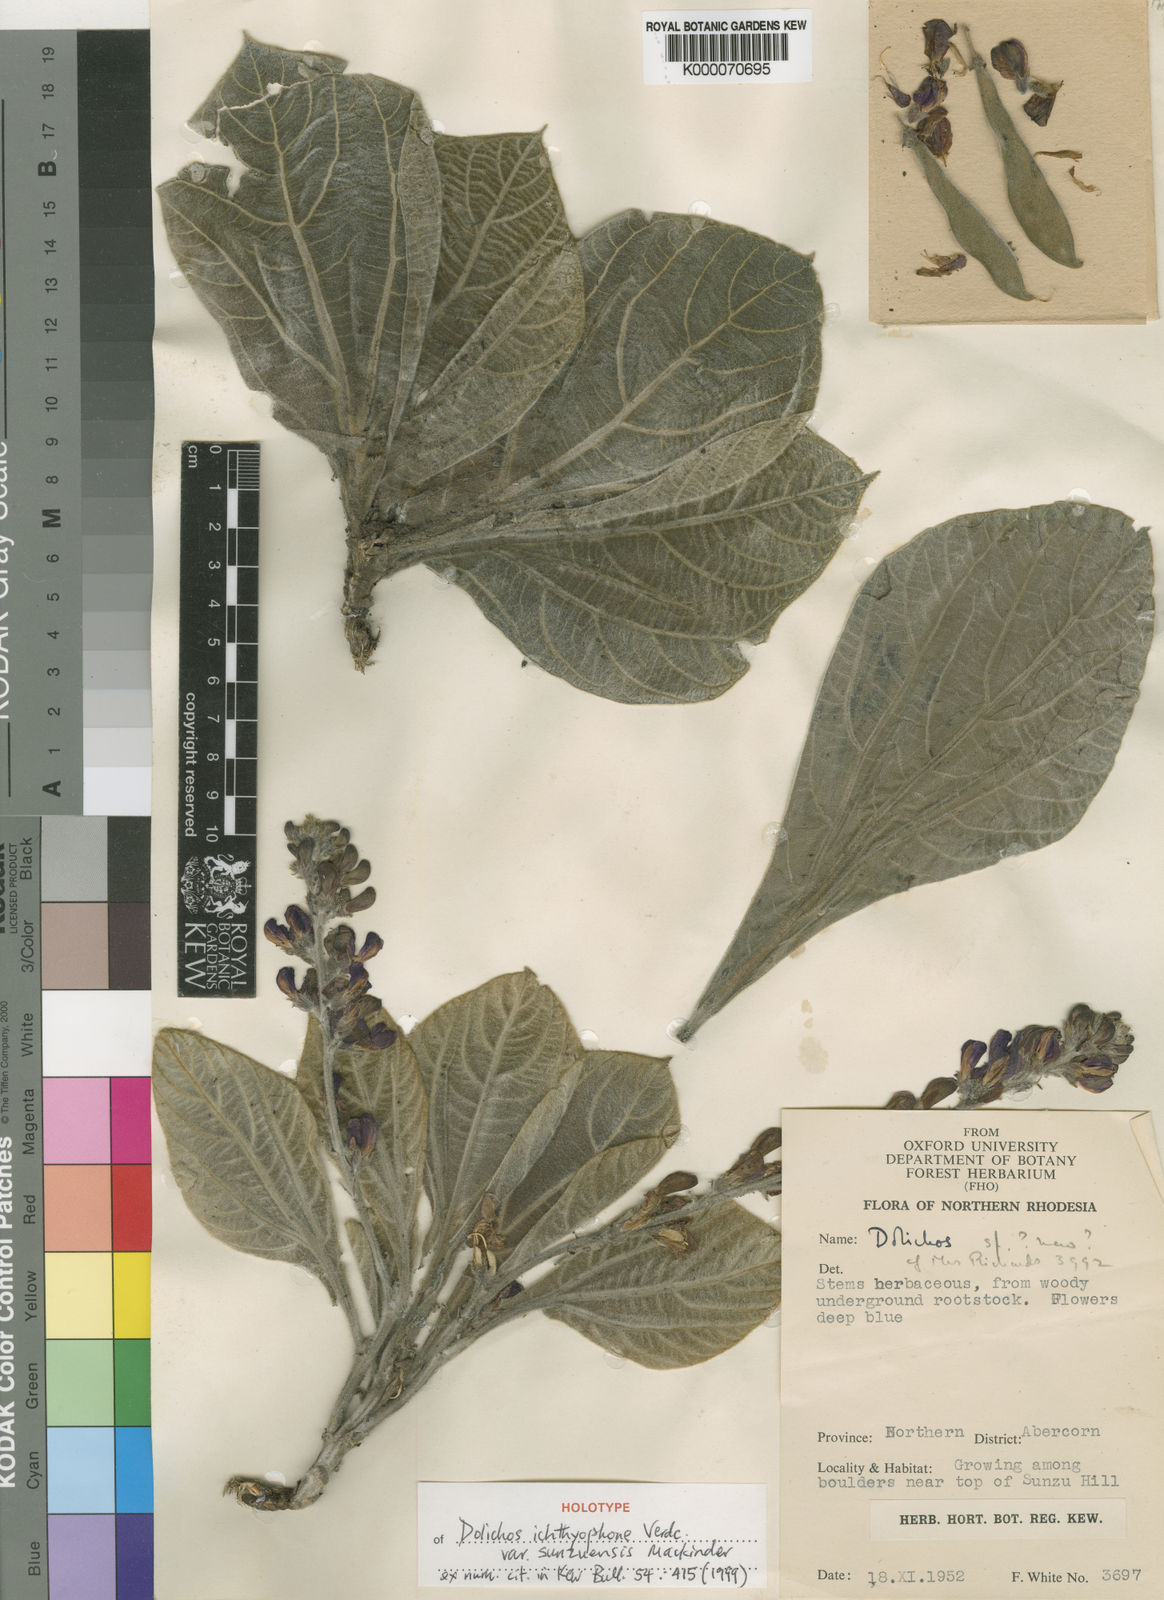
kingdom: Plantae
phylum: Tracheophyta
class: Magnoliopsida
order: Fabales
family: Fabaceae
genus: Dolichos
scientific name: Dolichos ichthyophone
